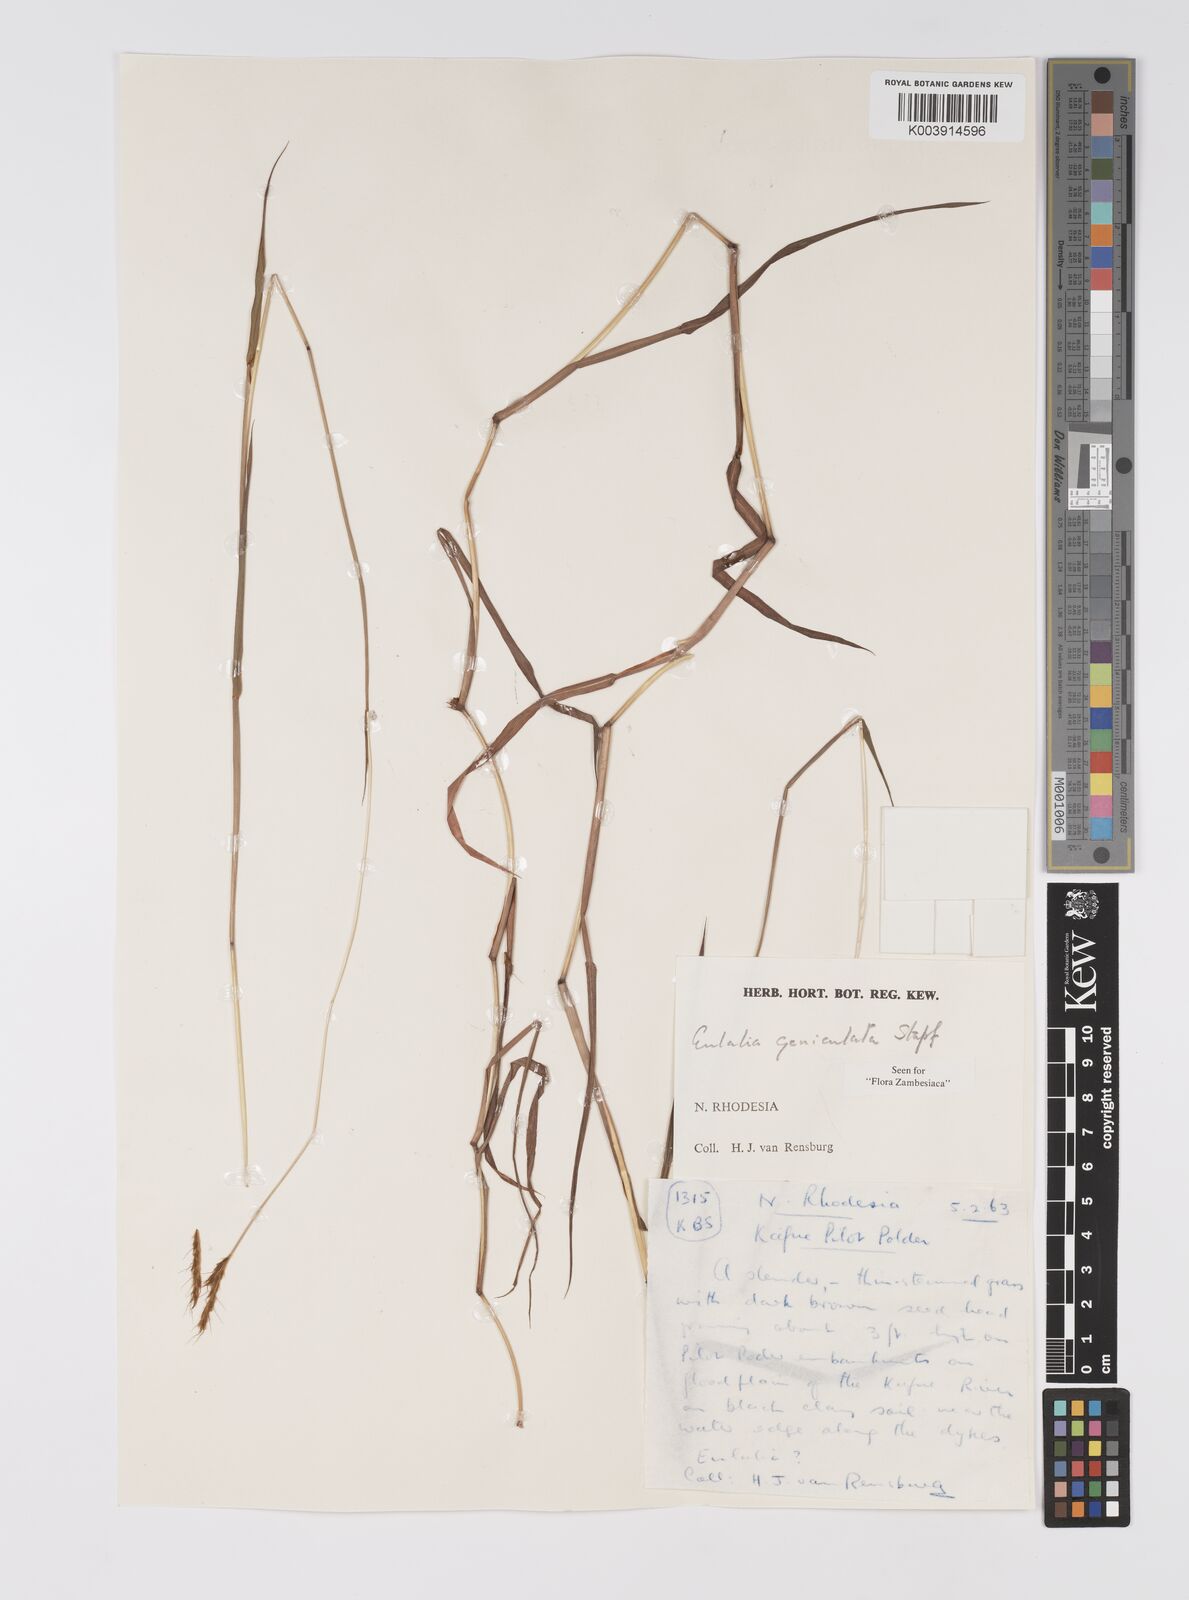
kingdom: Plantae
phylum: Tracheophyta
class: Liliopsida
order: Poales
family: Poaceae
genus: Eulalia
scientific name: Eulalia aurea
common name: Silky browntop
